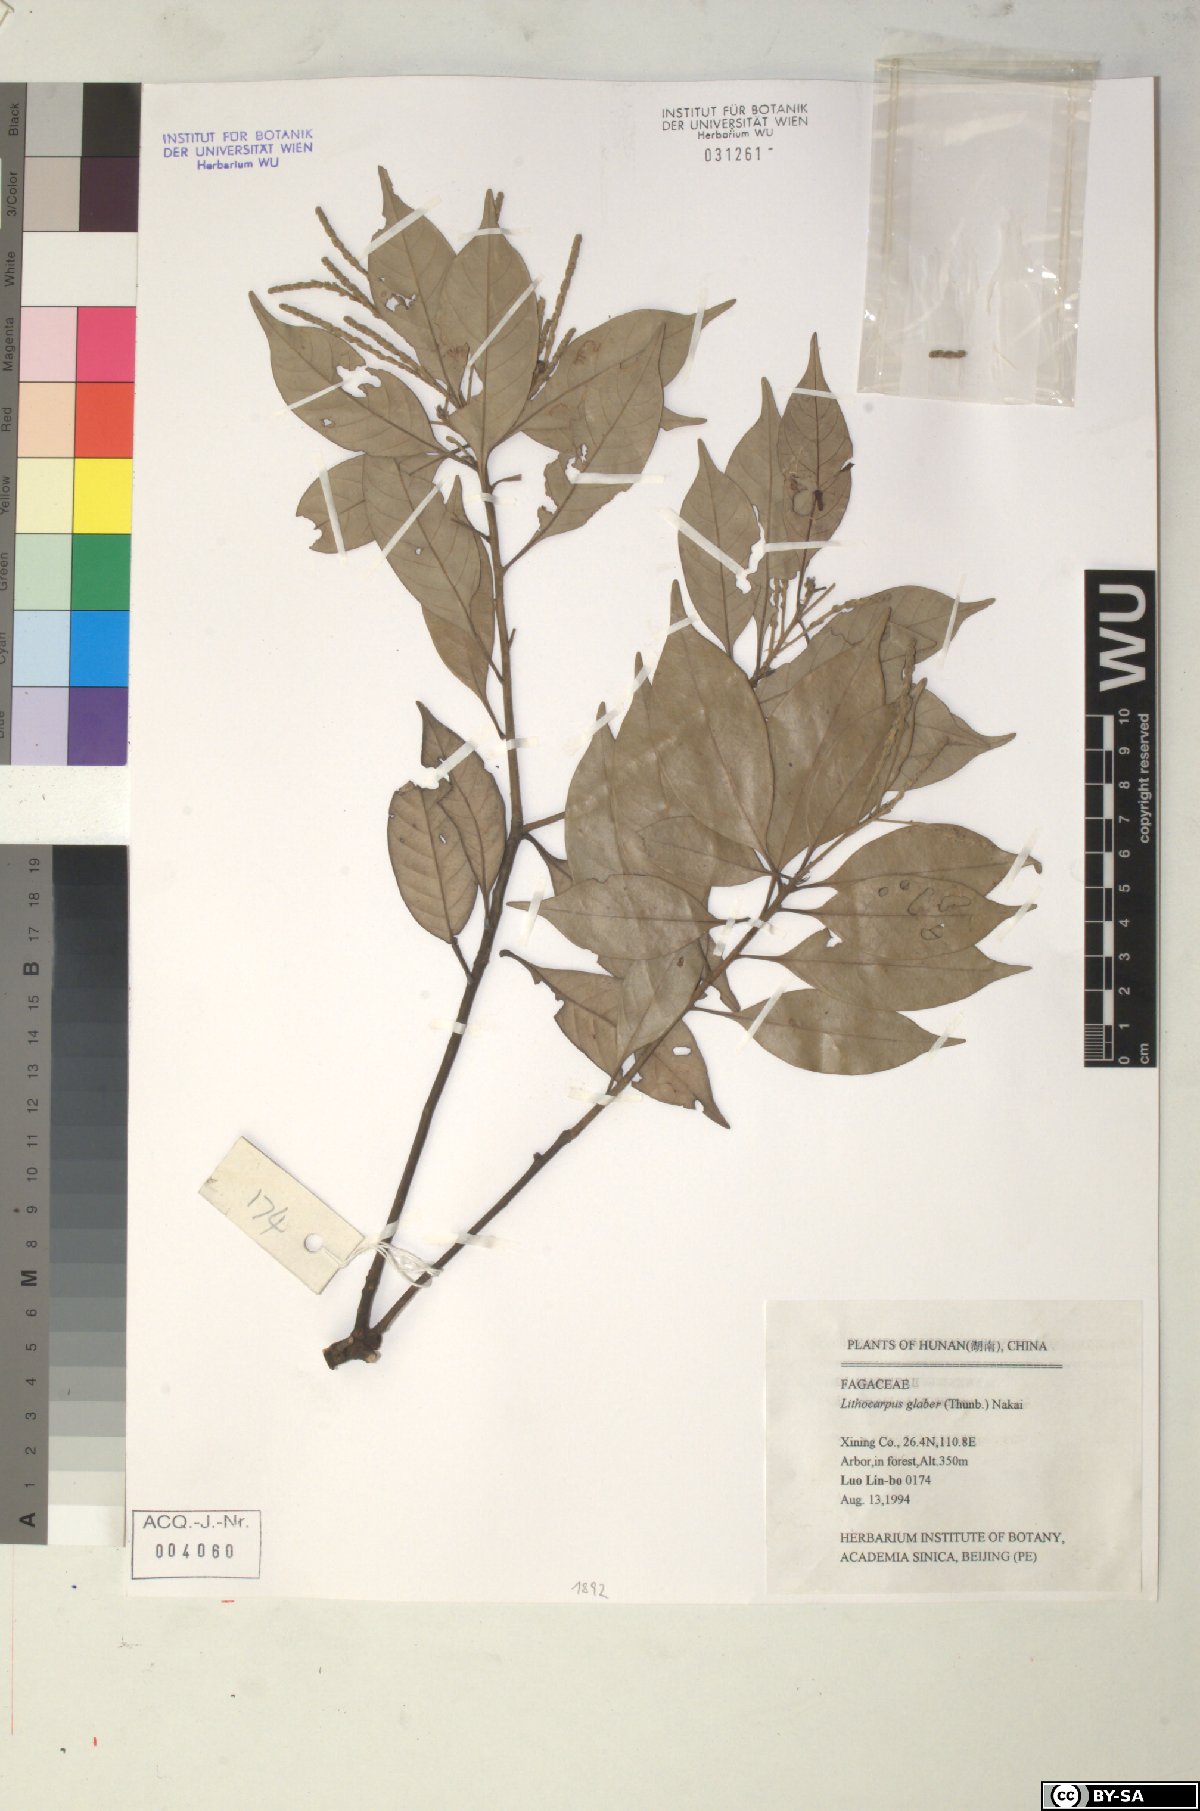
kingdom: Plantae
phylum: Tracheophyta
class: Magnoliopsida
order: Fagales
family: Fagaceae
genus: Lithocarpus
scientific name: Lithocarpus glaber
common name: Japanese-oak
